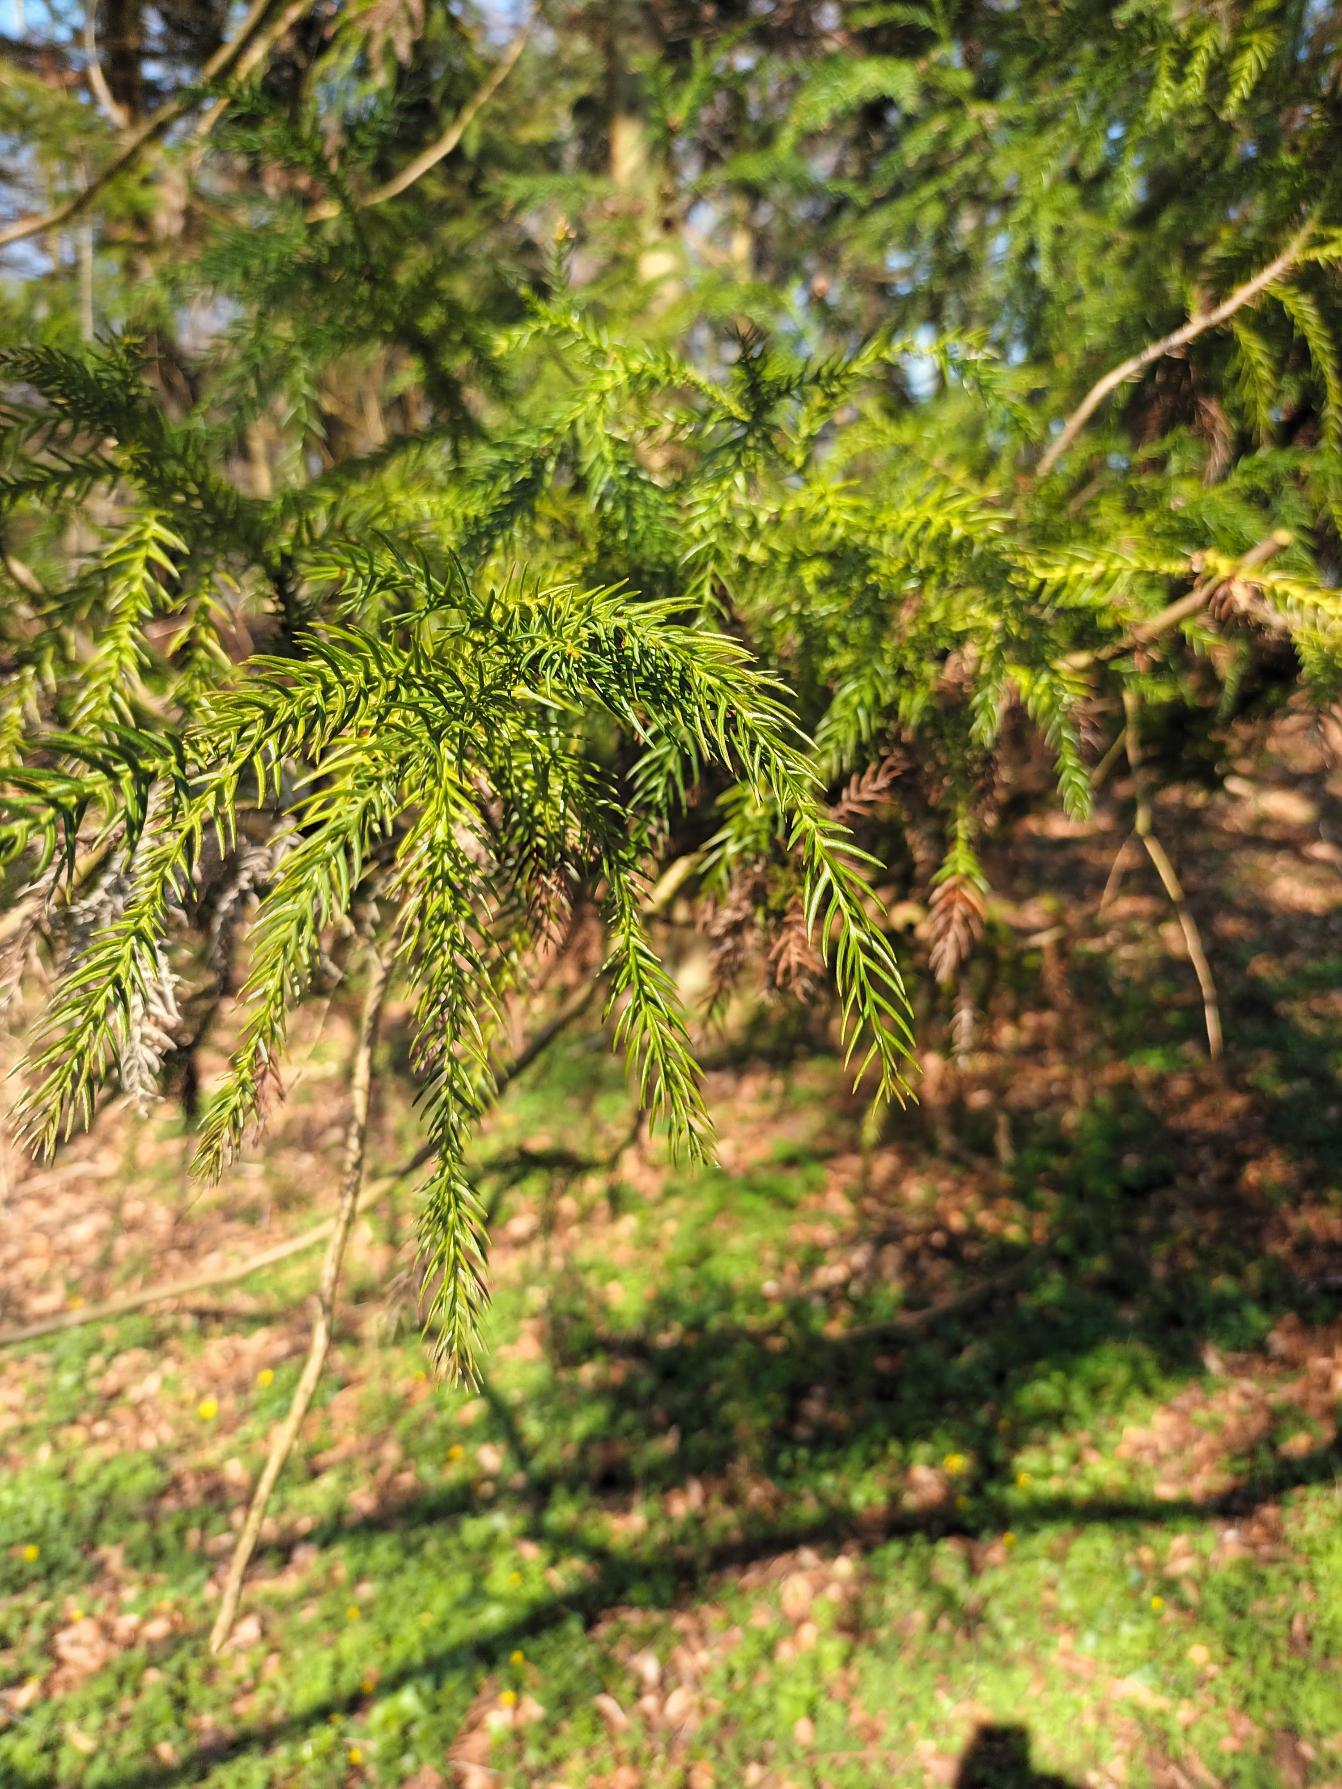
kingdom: Plantae
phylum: Tracheophyta
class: Pinopsida
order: Pinales
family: Cupressaceae
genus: Cryptomeria
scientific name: Cryptomeria japonica
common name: Kryptomeria
